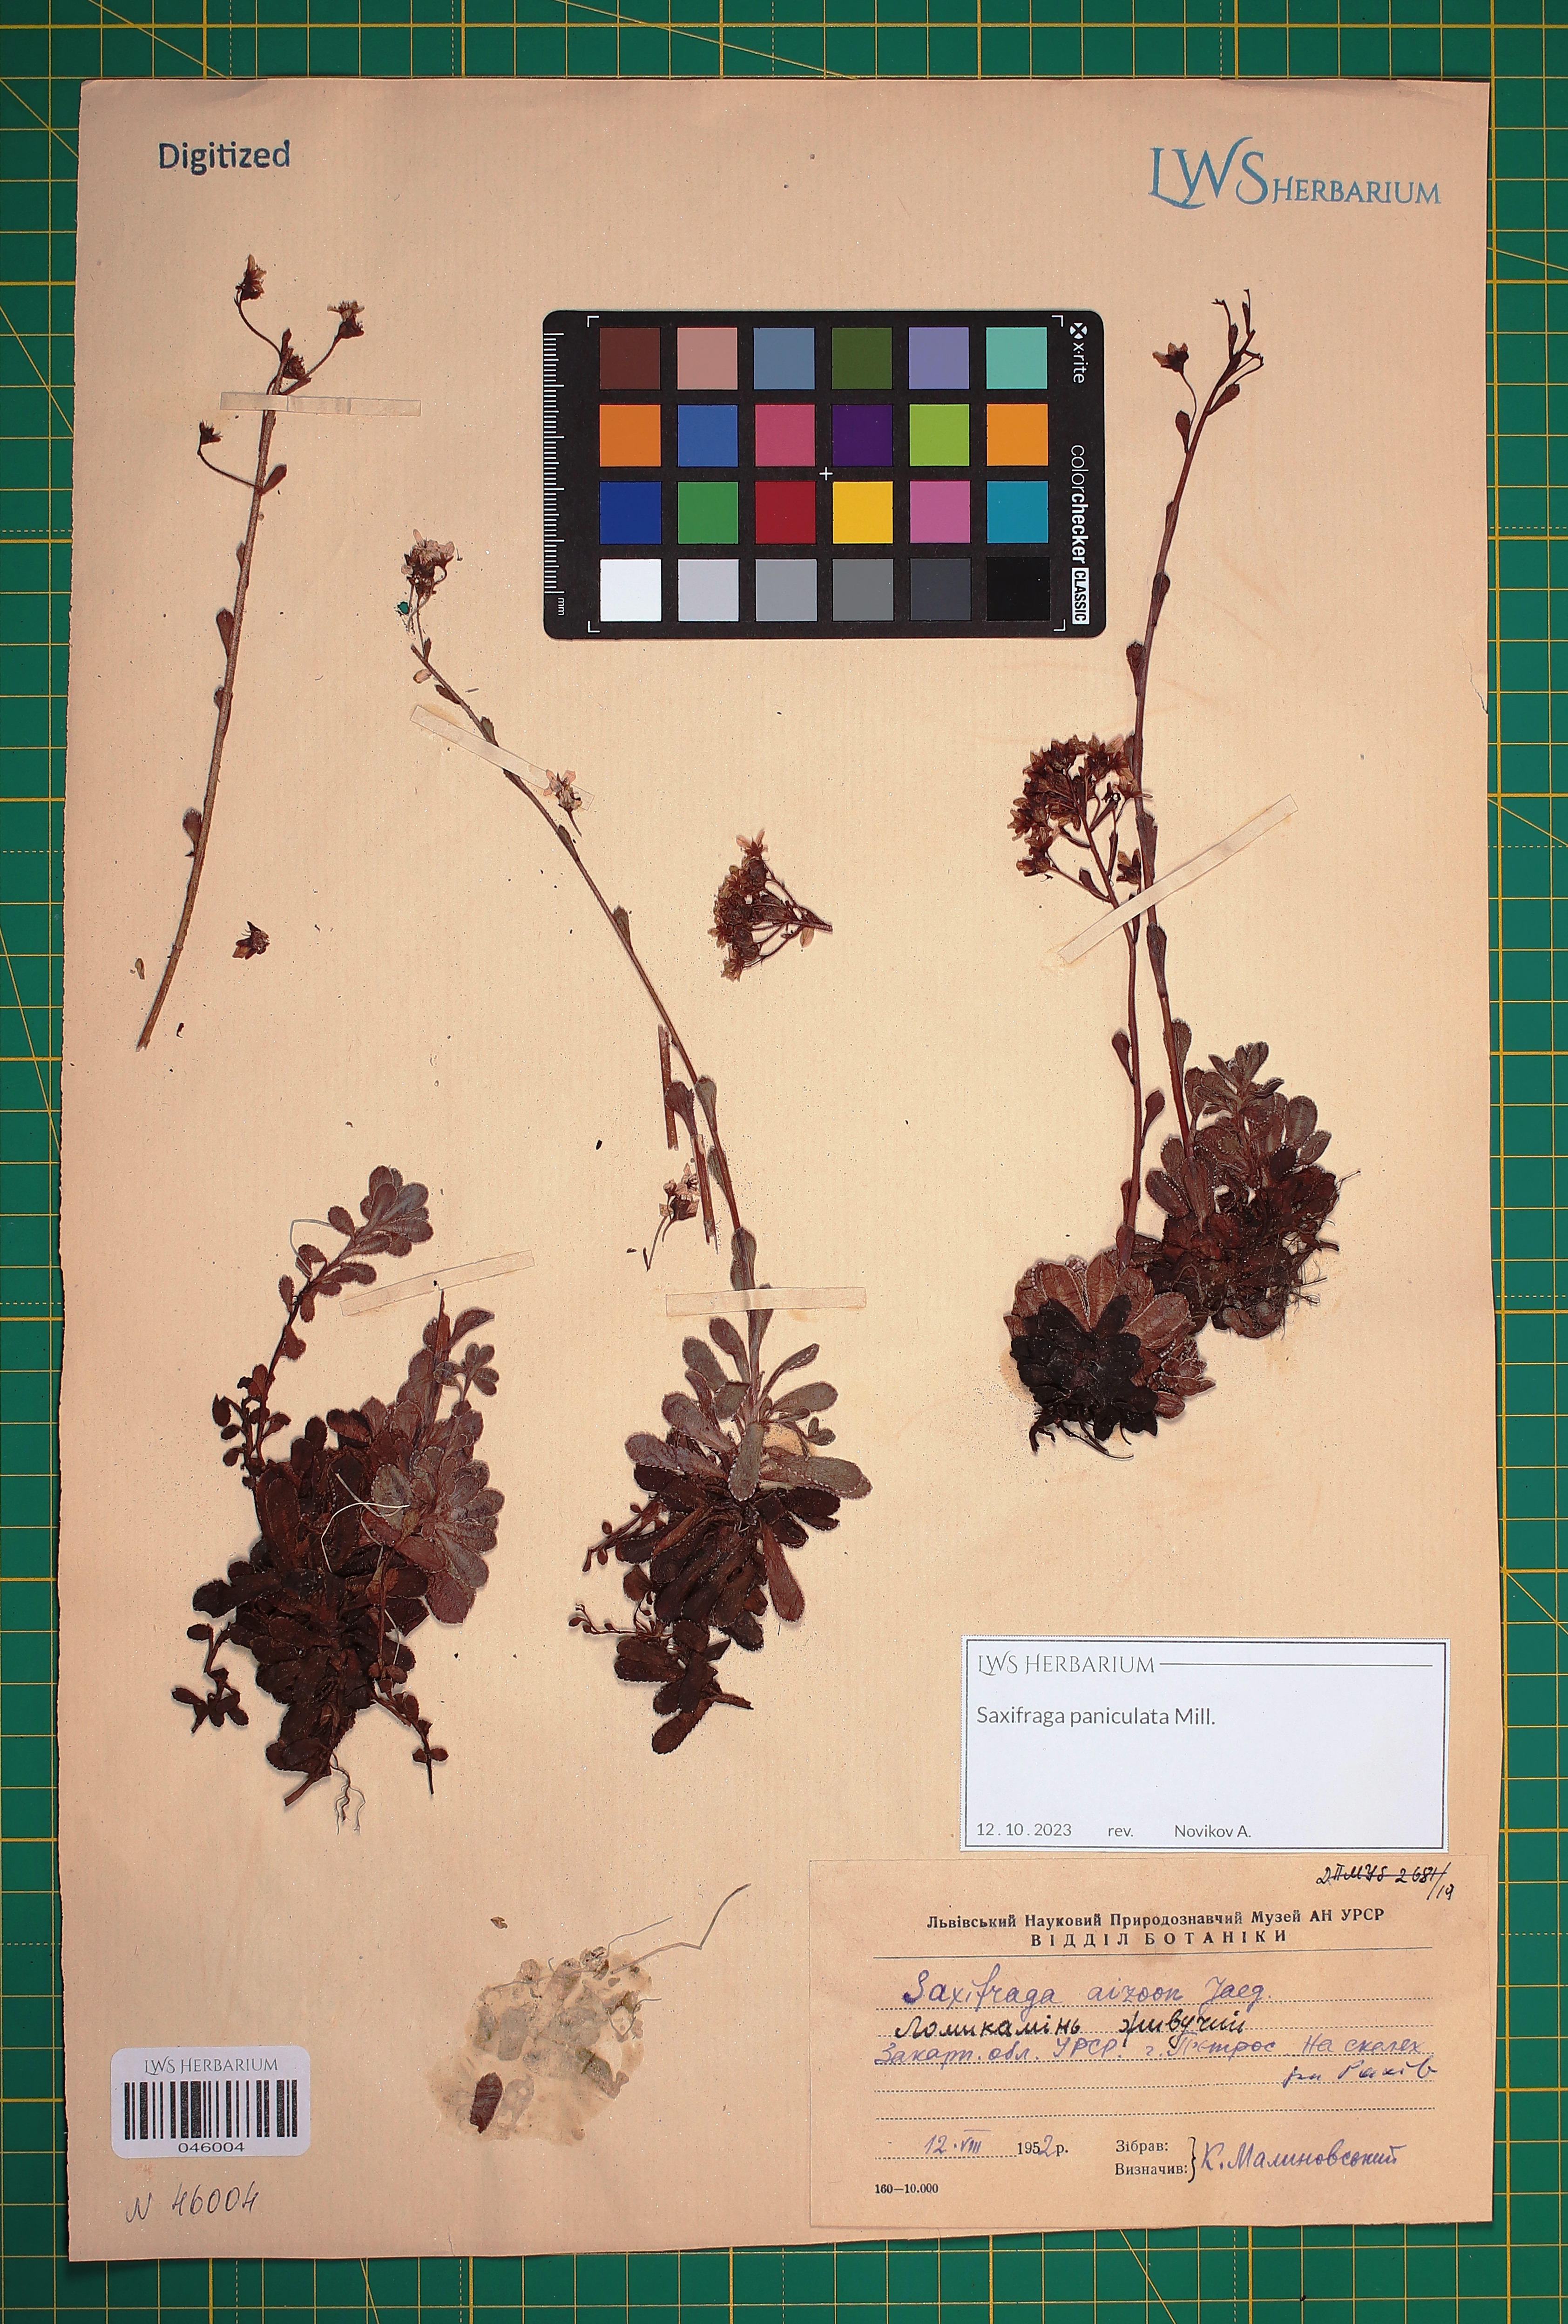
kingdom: Plantae
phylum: Tracheophyta
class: Magnoliopsida
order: Saxifragales
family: Saxifragaceae
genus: Saxifraga
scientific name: Saxifraga paniculata
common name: Livelong saxifrage
